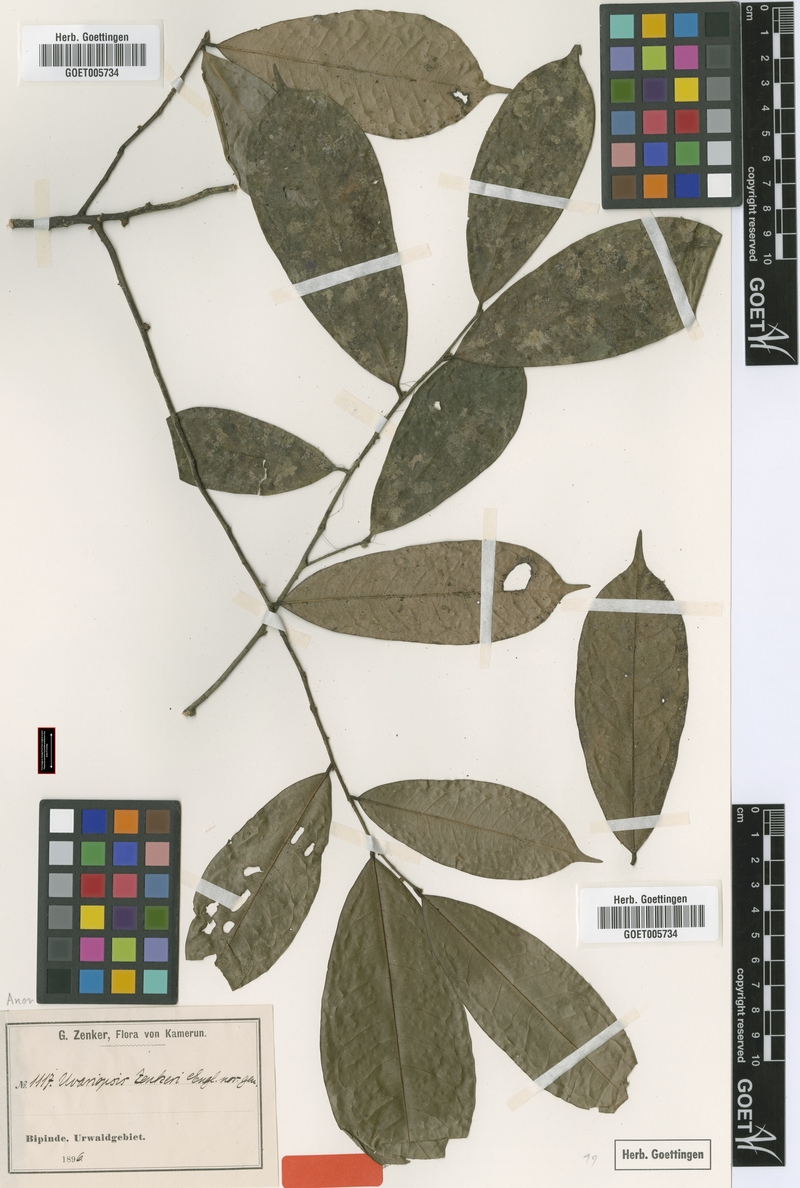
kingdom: Plantae
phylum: Tracheophyta
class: Magnoliopsida
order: Magnoliales
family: Annonaceae
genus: Uvariopsis
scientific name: Uvariopsis zenkeri
